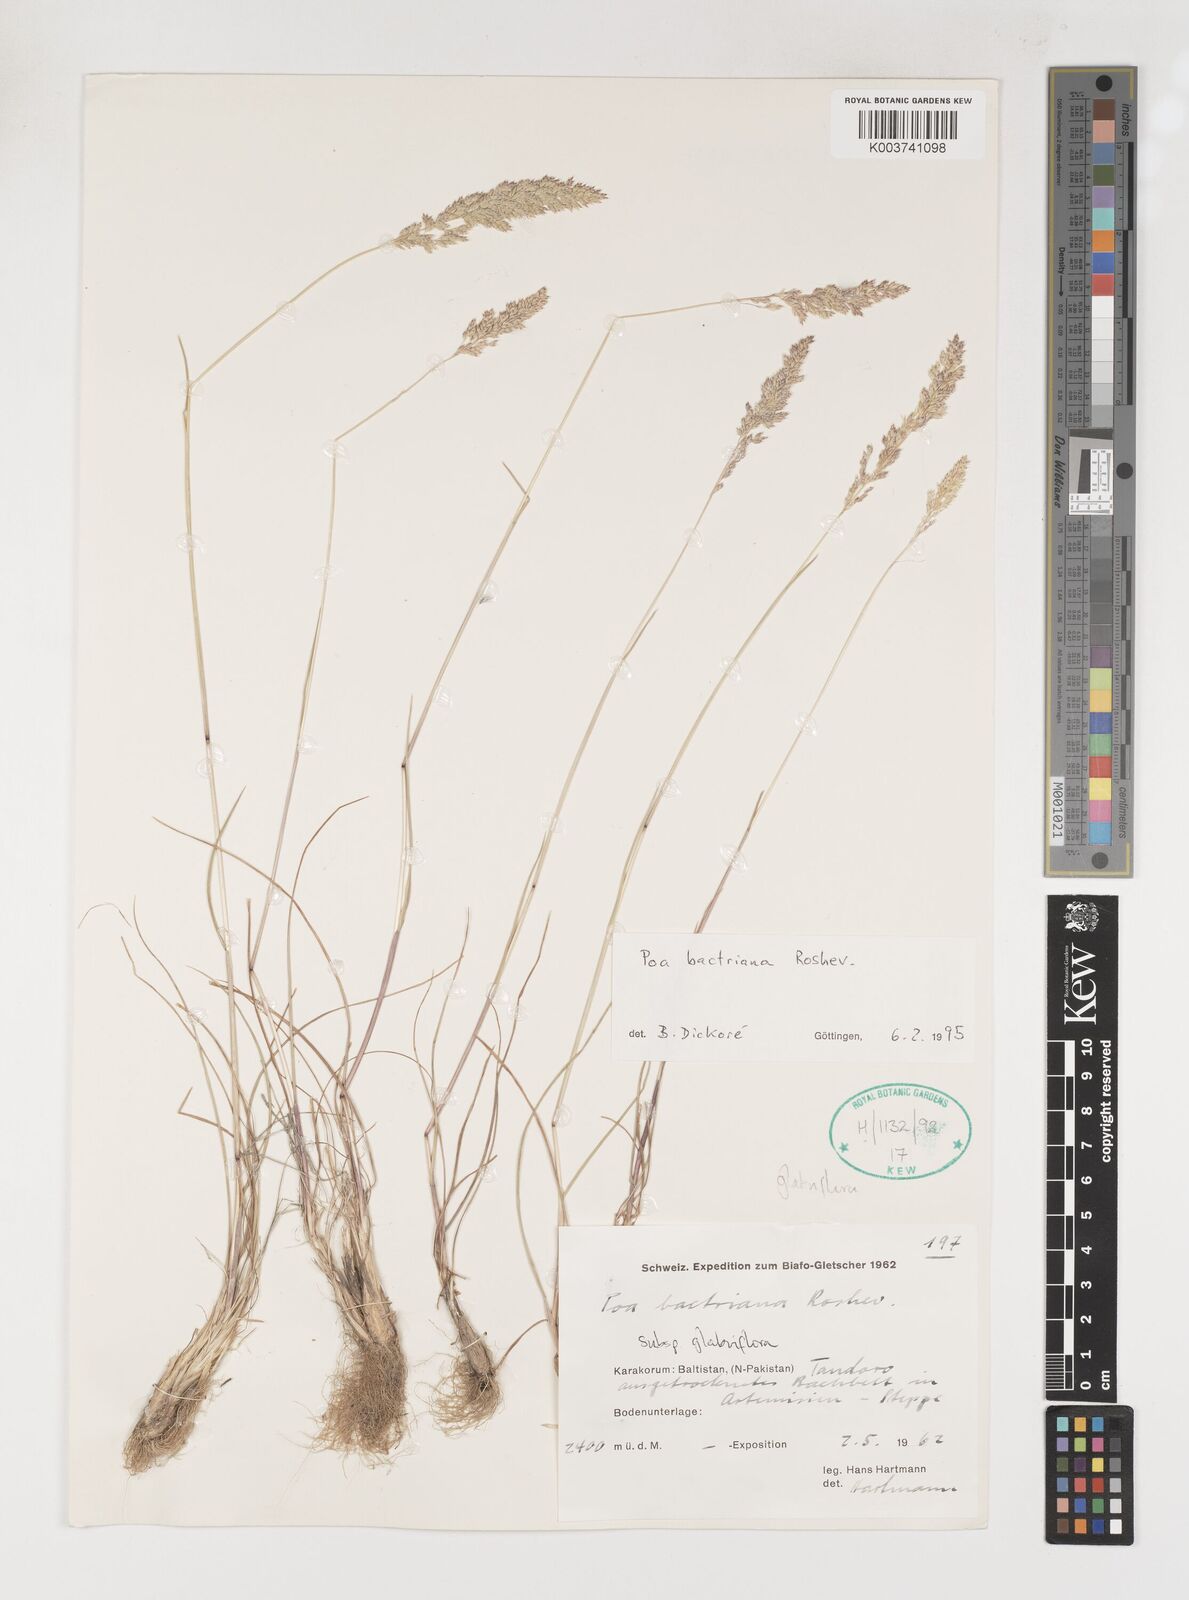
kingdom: Plantae
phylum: Tracheophyta
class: Liliopsida
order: Poales
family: Poaceae
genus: Poa
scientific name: Poa bactriana
